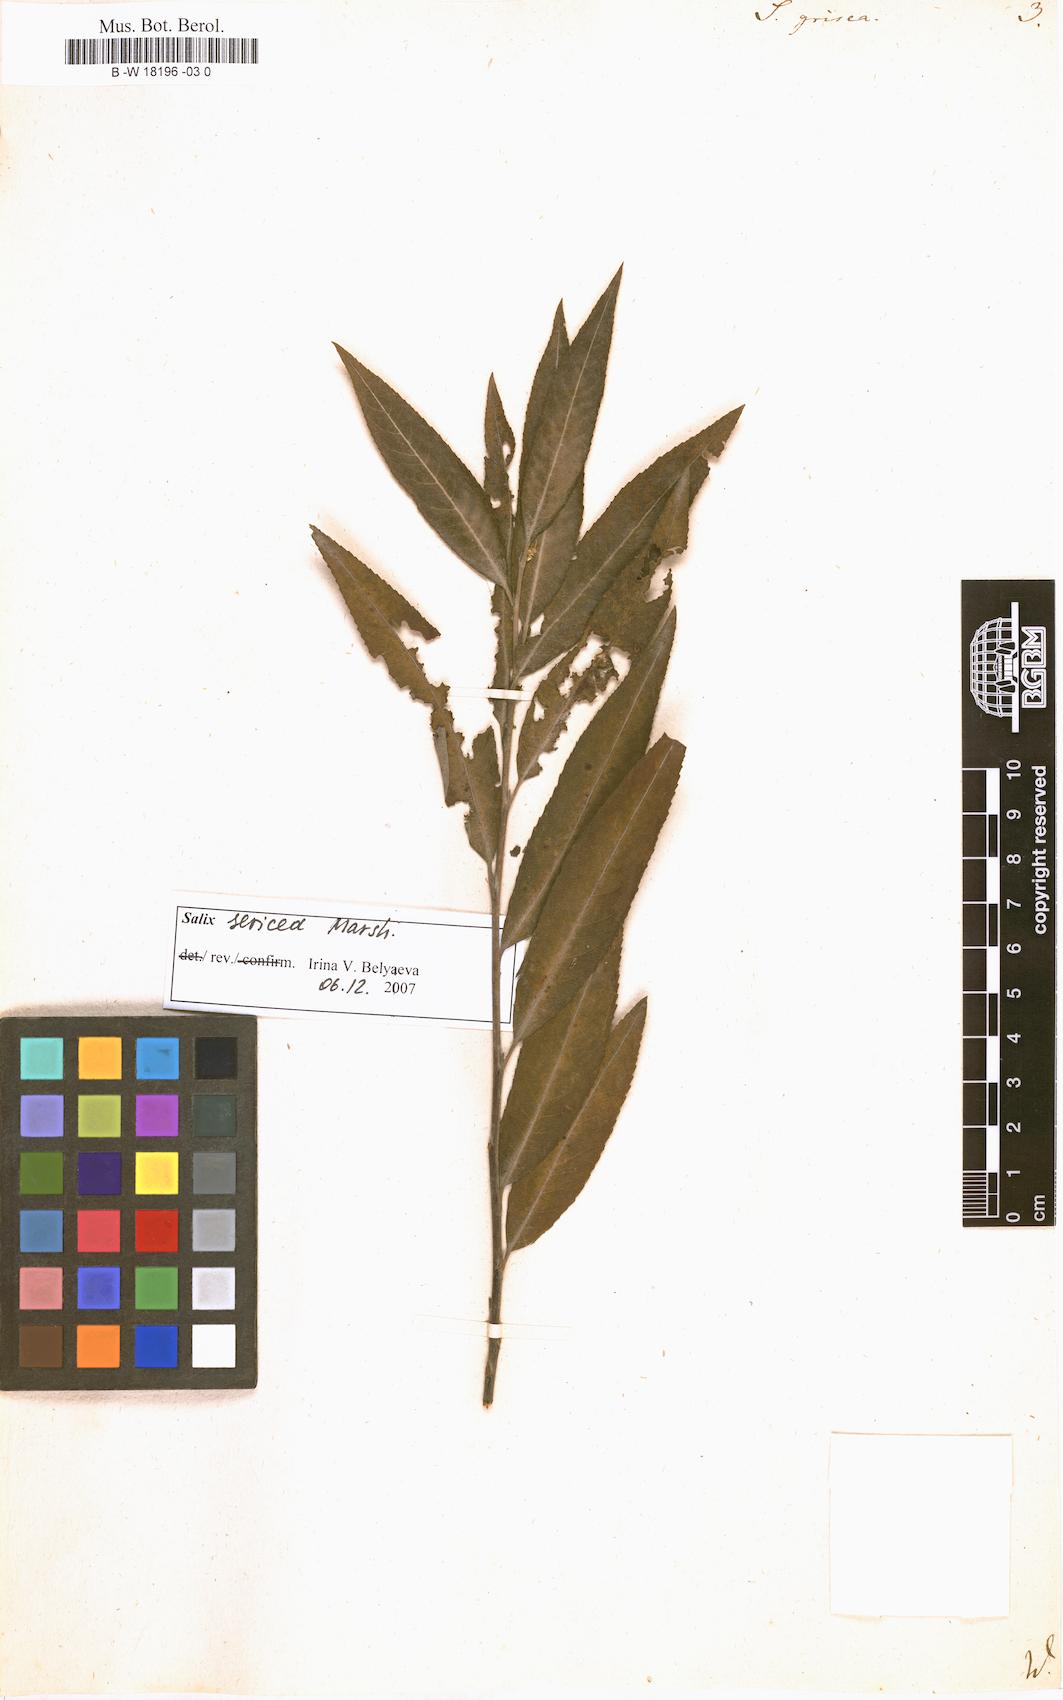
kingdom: Plantae
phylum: Tracheophyta
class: Magnoliopsida
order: Malpighiales
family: Salicaceae
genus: Salix
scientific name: Salix
